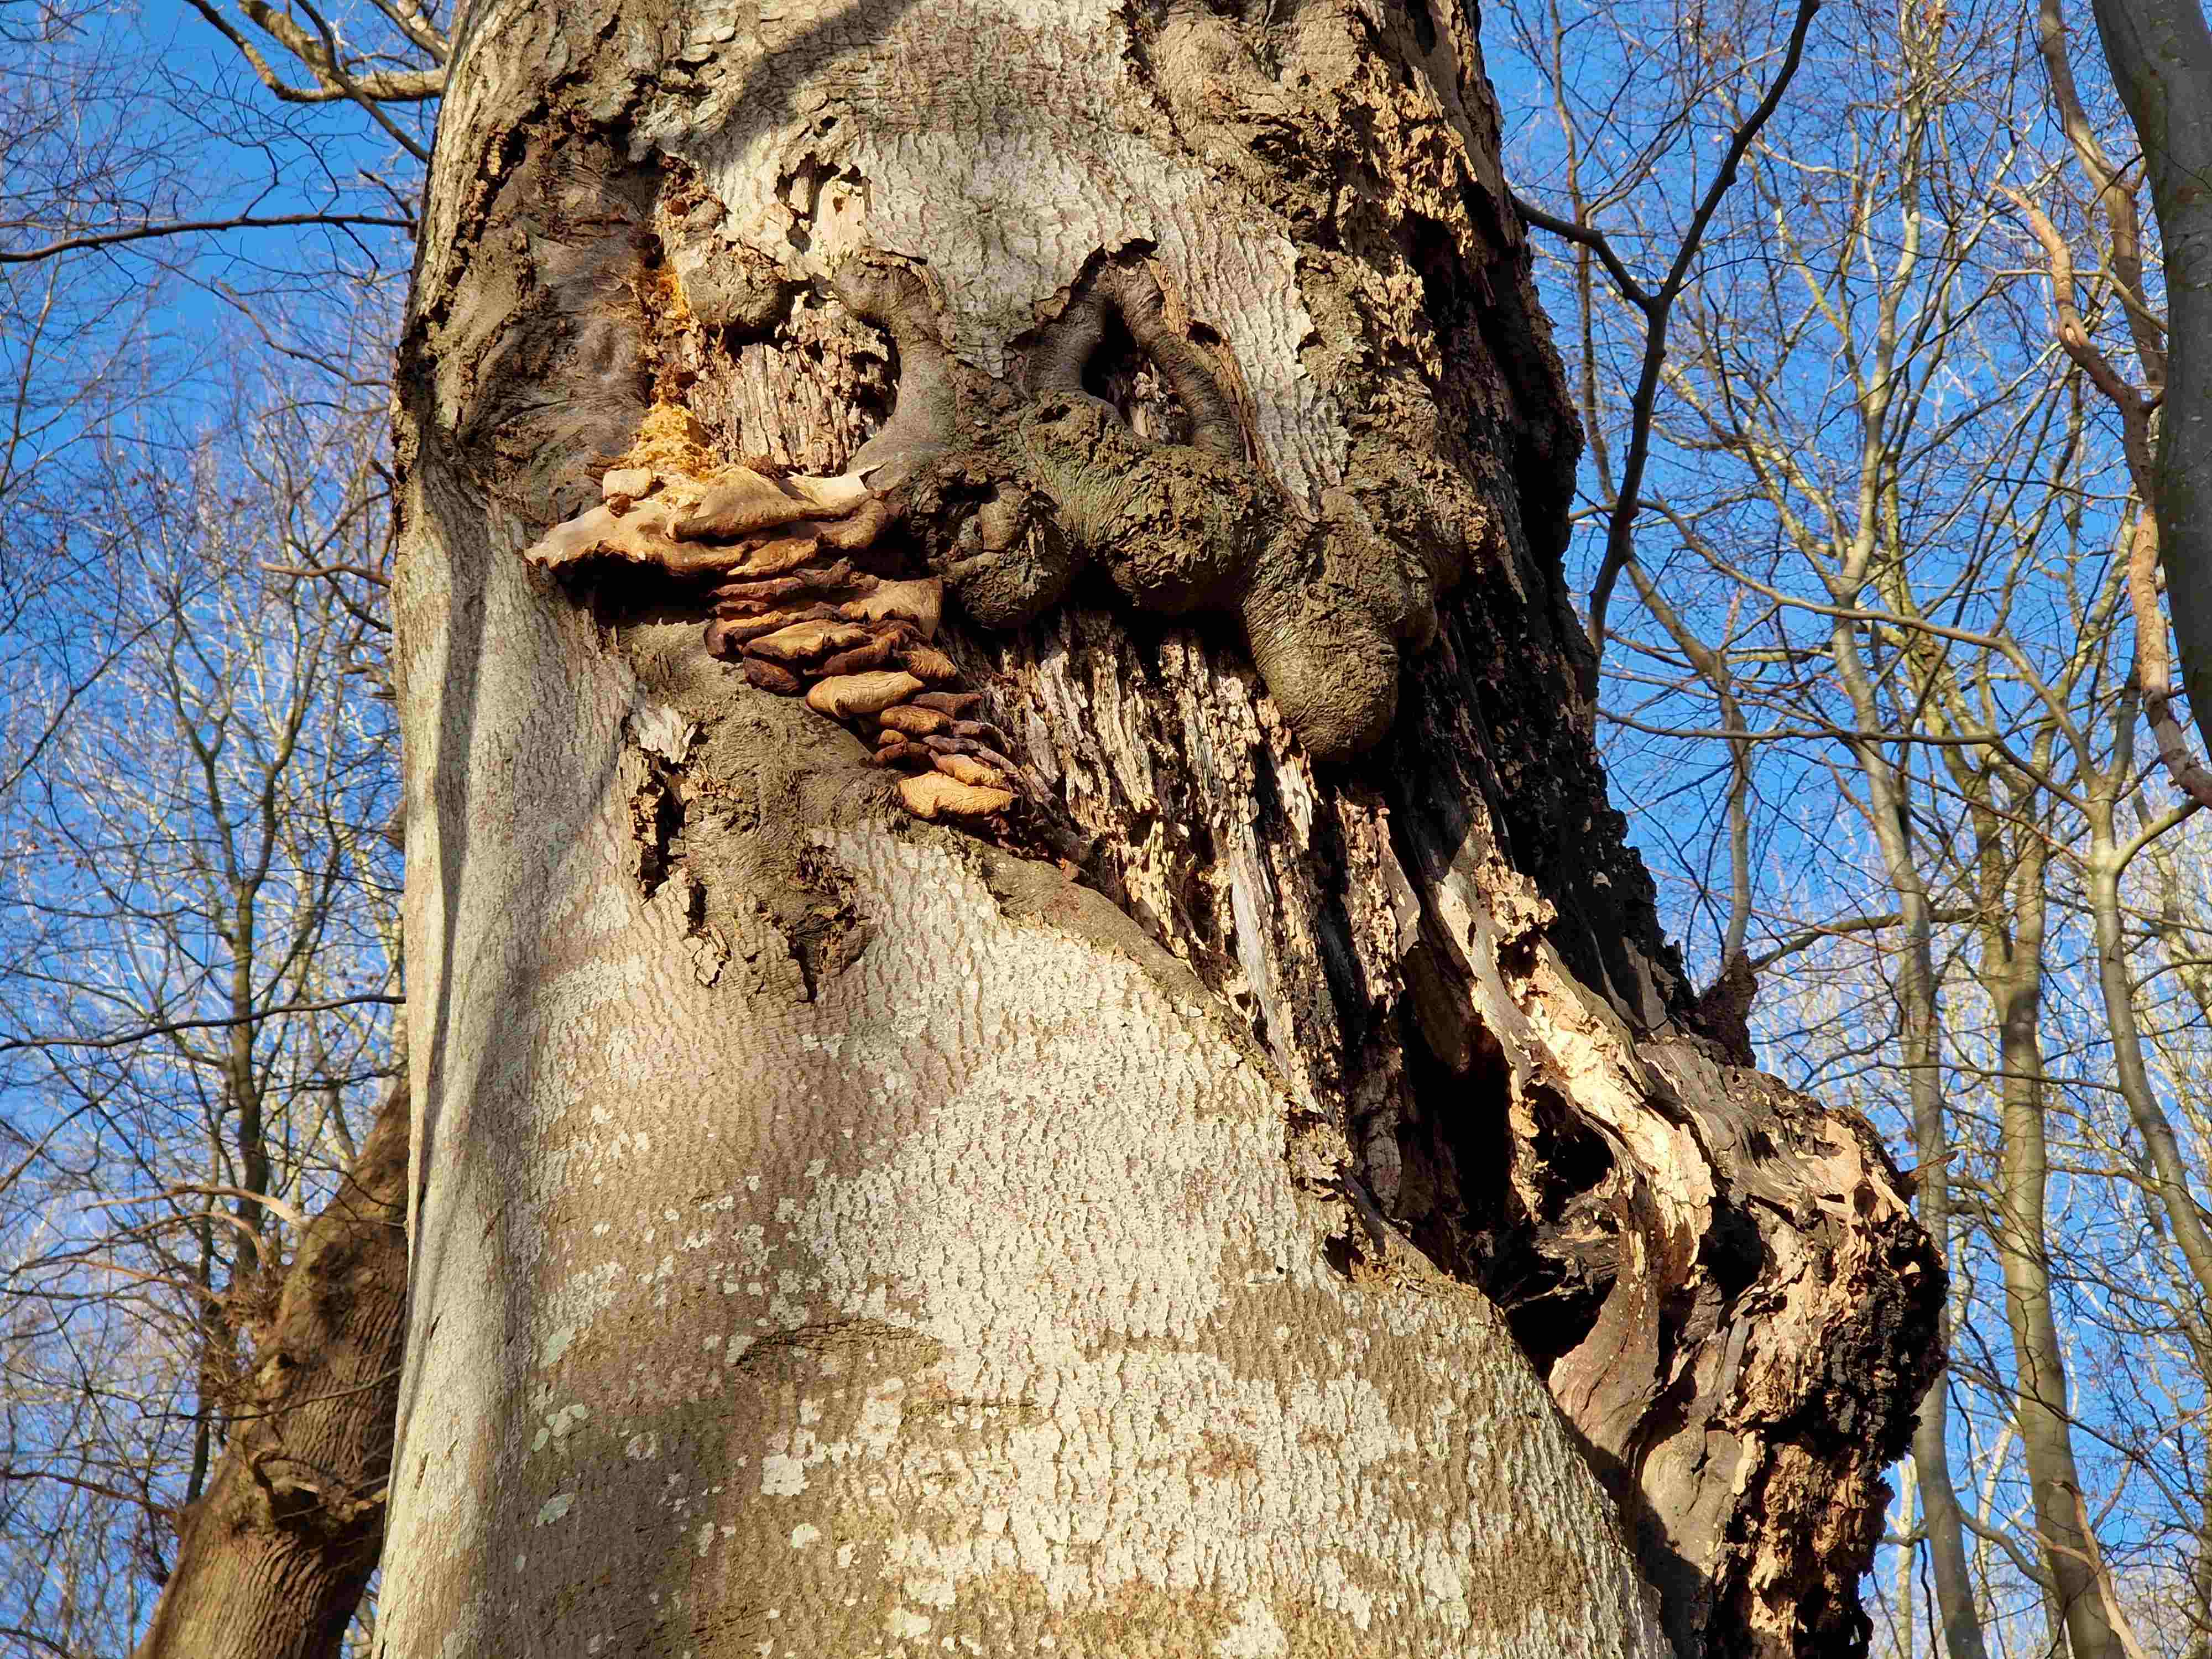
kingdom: Fungi
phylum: Basidiomycota
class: Agaricomycetes
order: Agaricales
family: Pleurotaceae
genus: Pleurotus
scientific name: Pleurotus ostreatus
